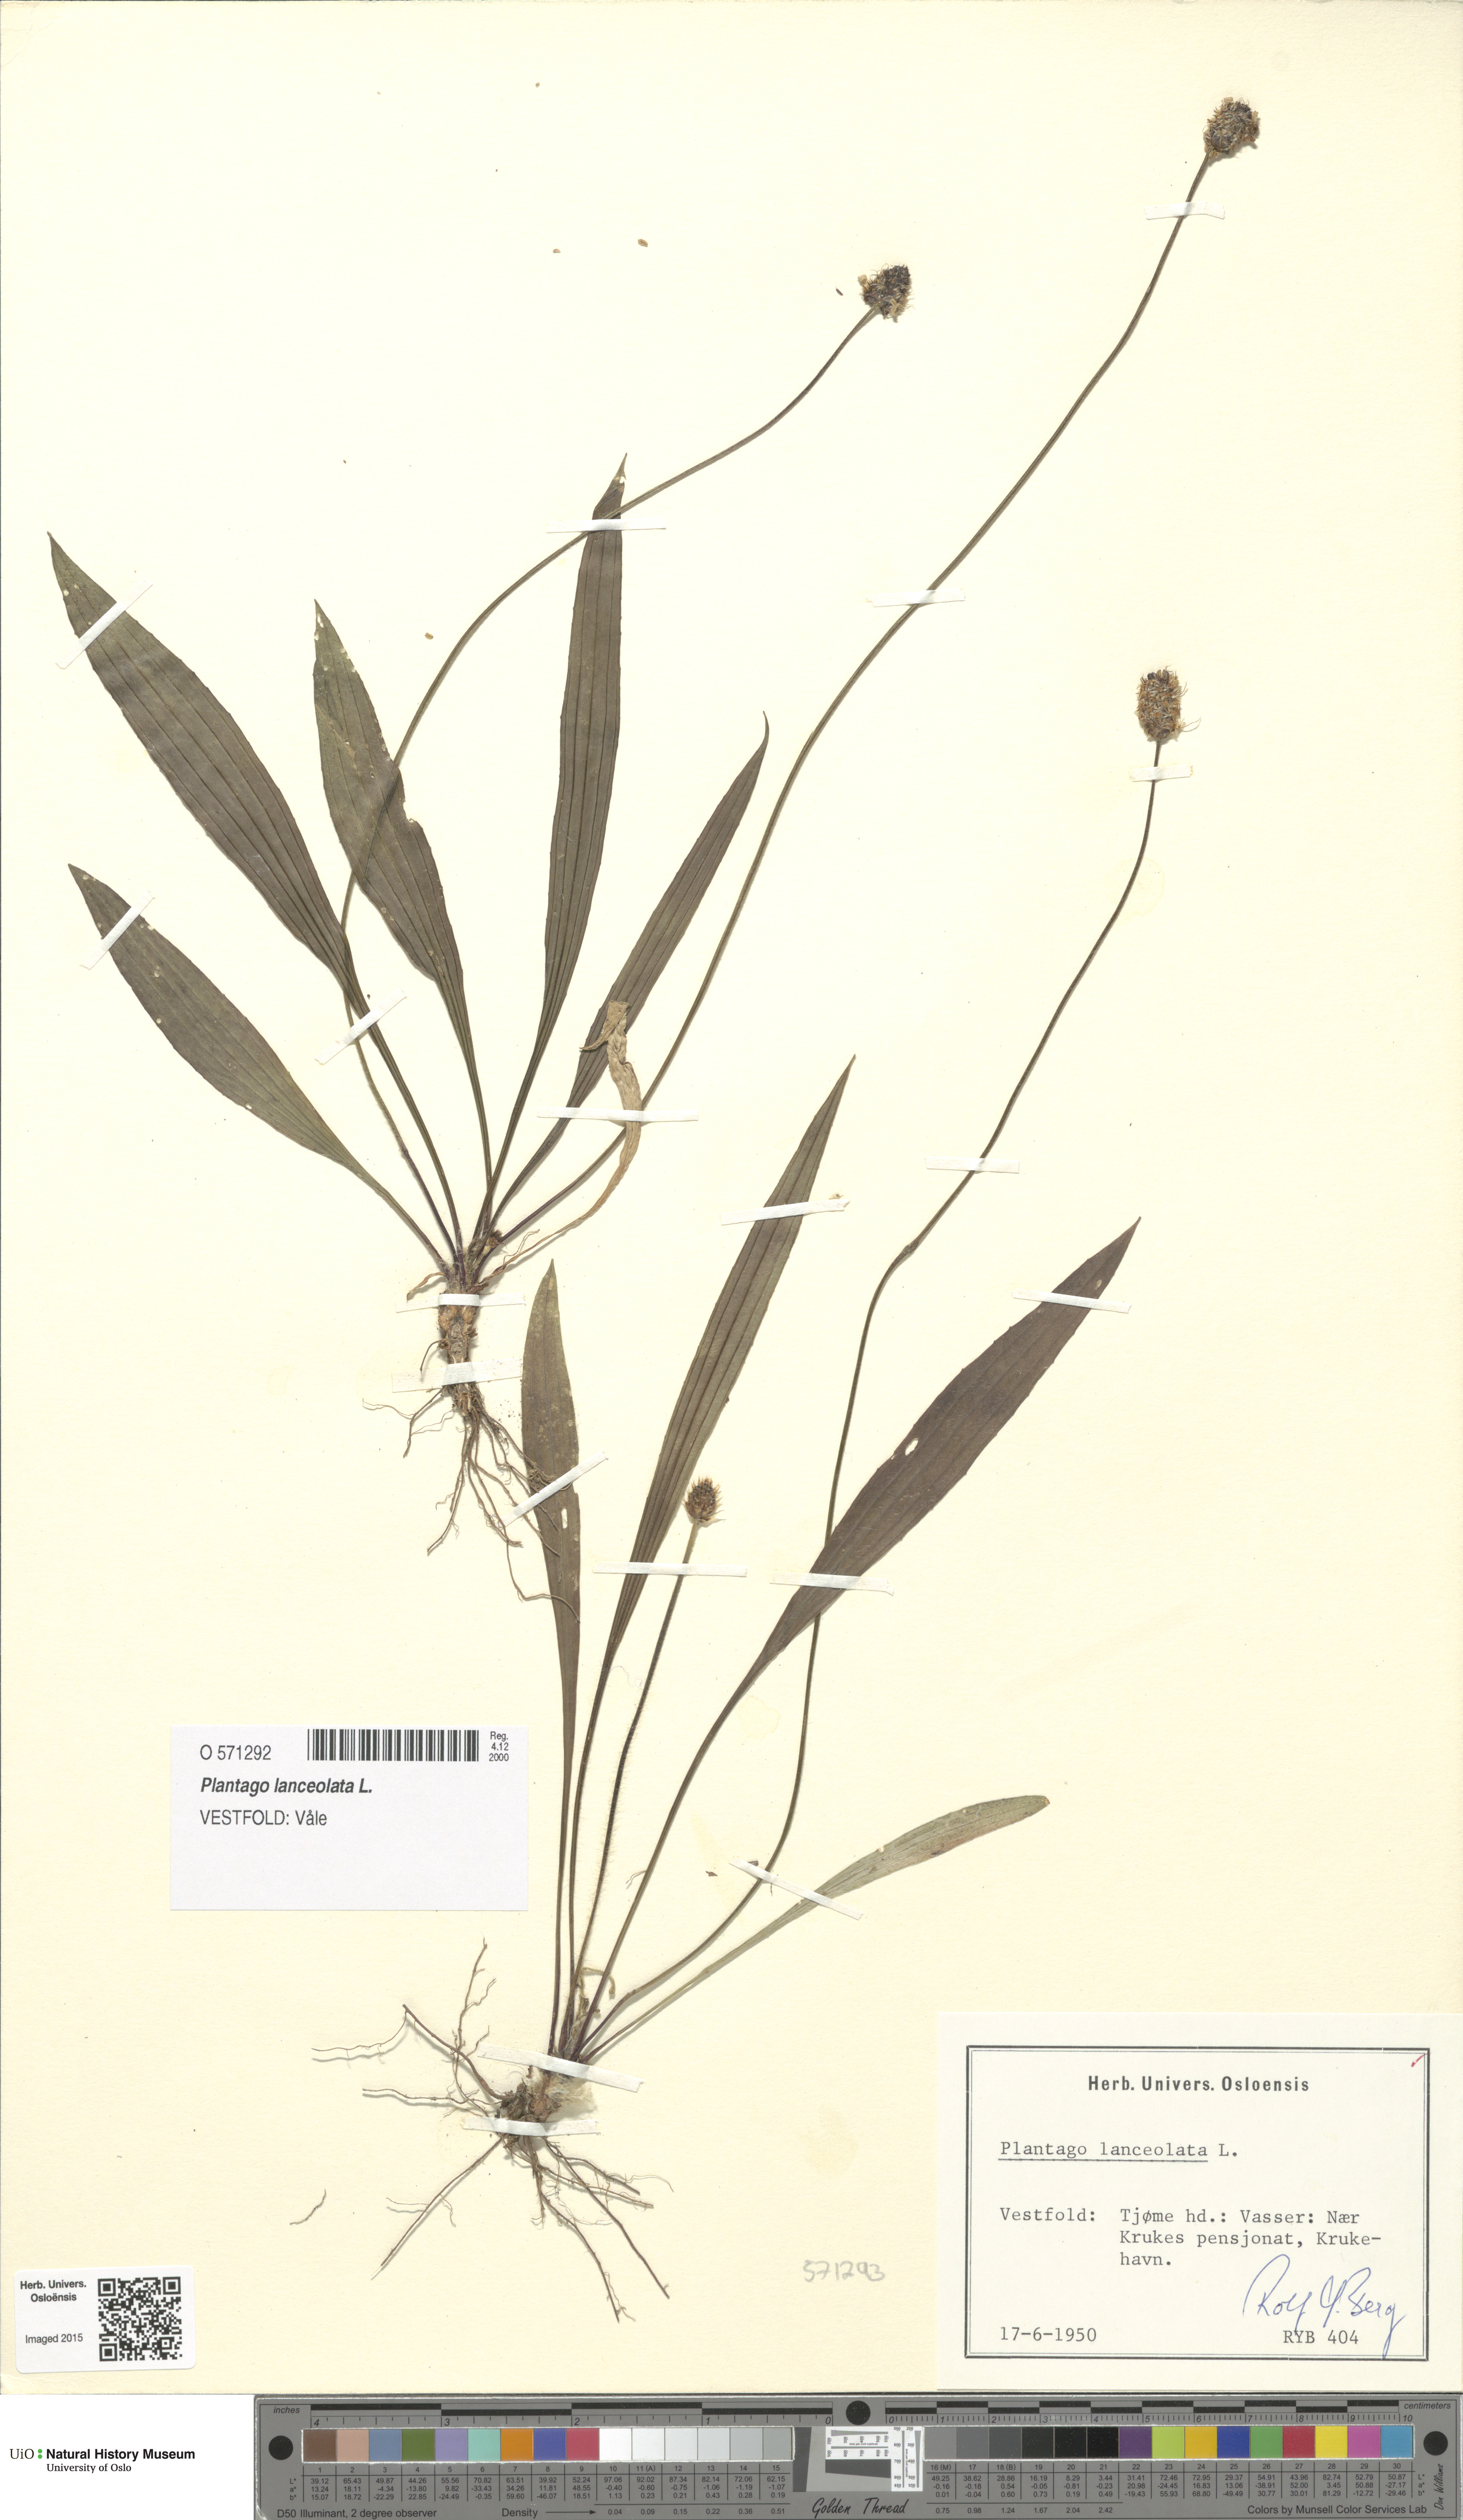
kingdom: Plantae
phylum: Tracheophyta
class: Magnoliopsida
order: Lamiales
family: Plantaginaceae
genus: Plantago
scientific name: Plantago lanceolata
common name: Ribwort plantain
